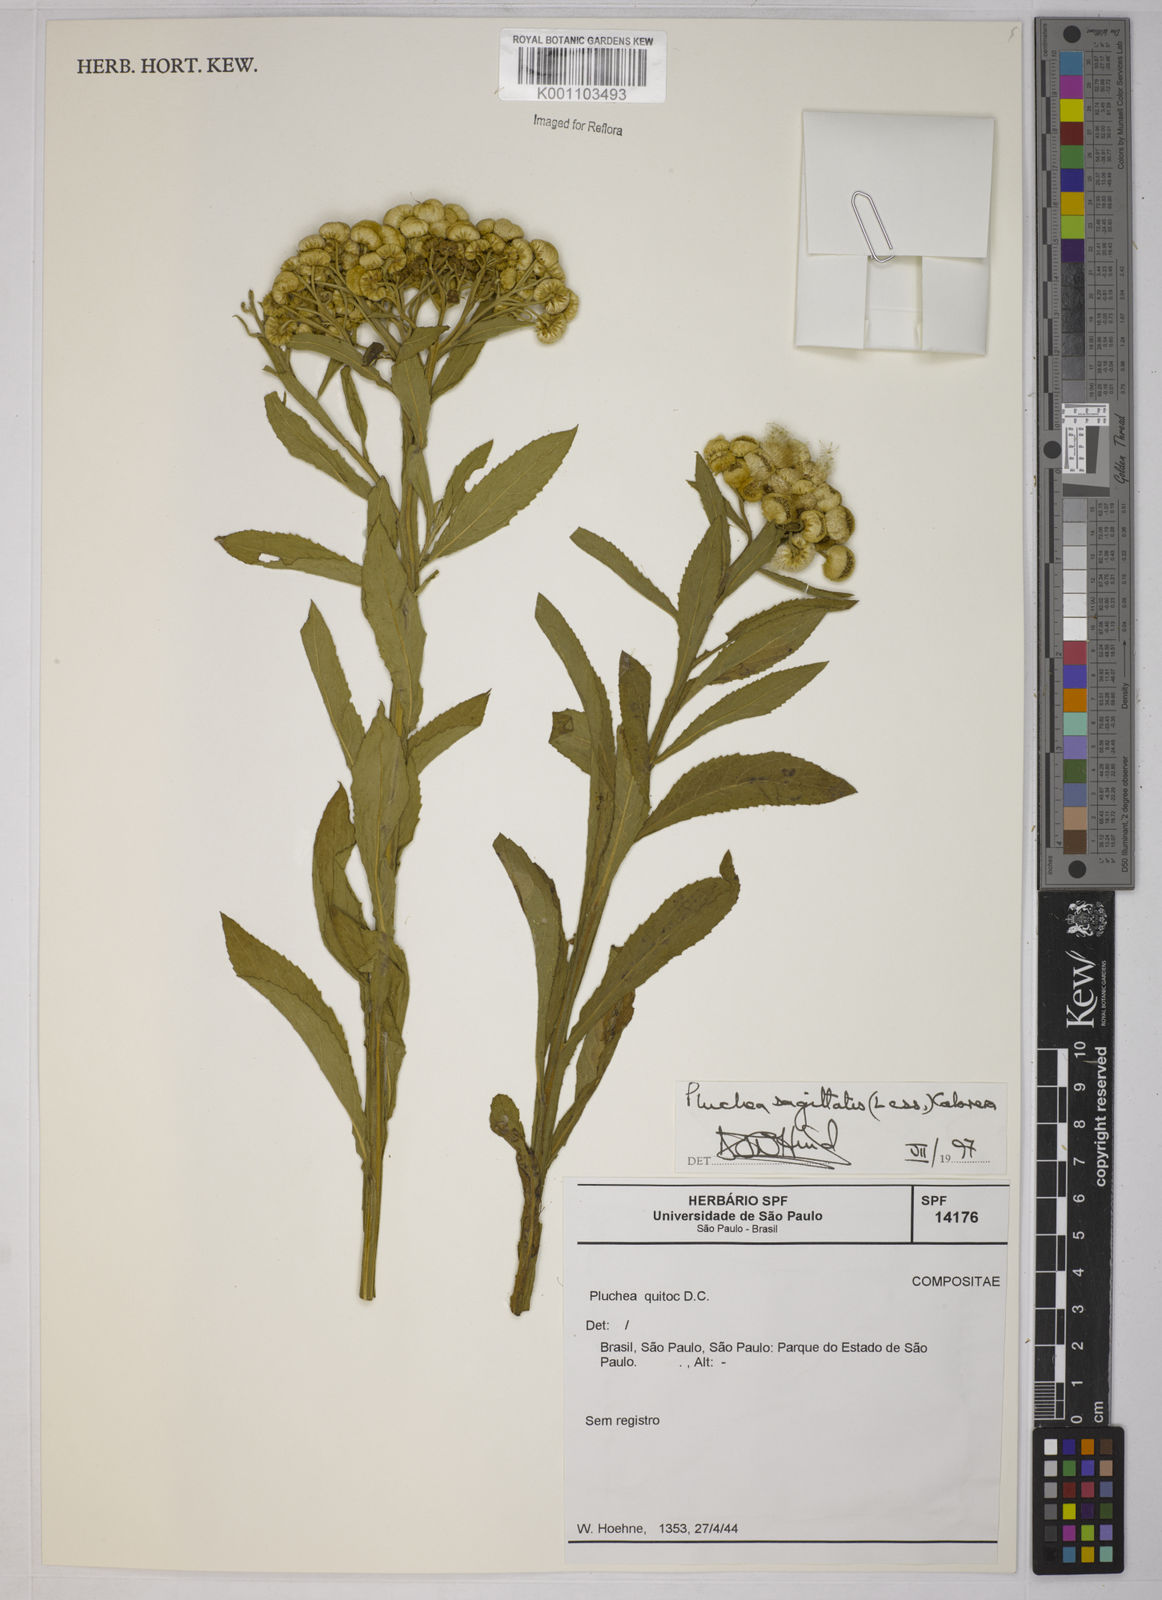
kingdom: Plantae
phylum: Tracheophyta
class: Magnoliopsida
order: Asterales
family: Asteraceae
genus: Pluchea
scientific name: Pluchea sagittalis
